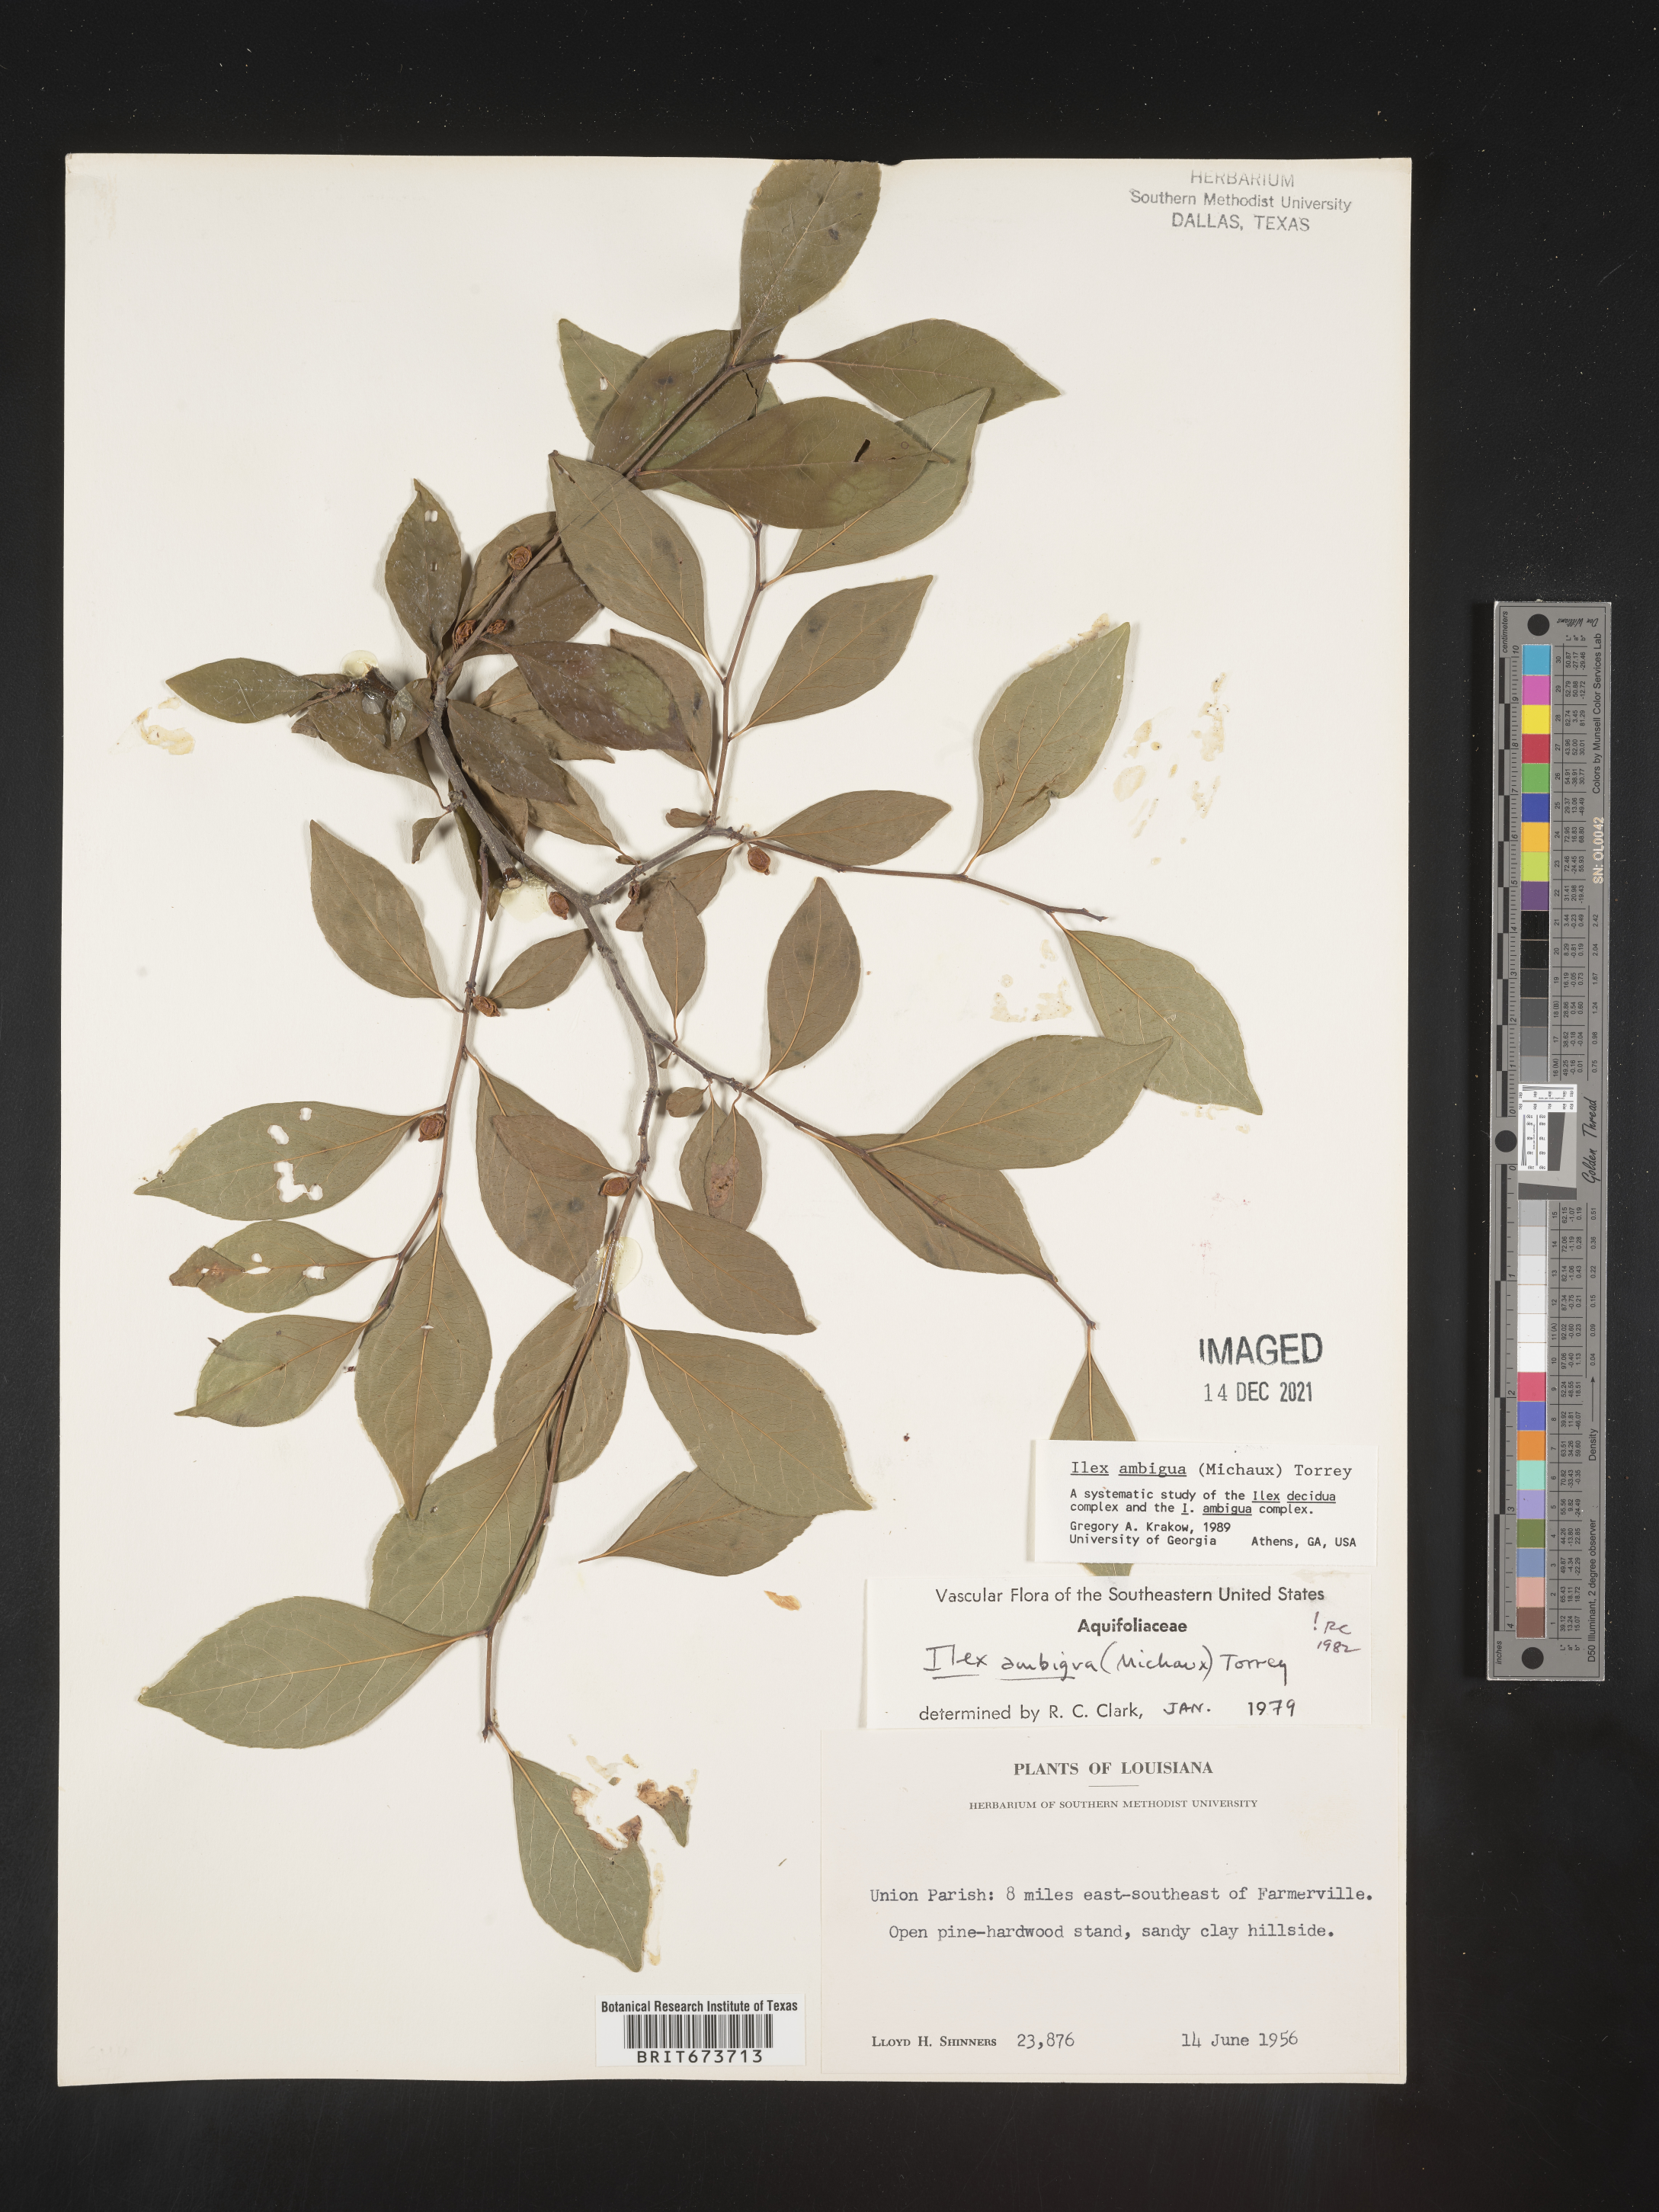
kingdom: Plantae
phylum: Tracheophyta
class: Magnoliopsida
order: Aquifoliales
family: Aquifoliaceae
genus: Ilex
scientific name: Ilex ambigua
